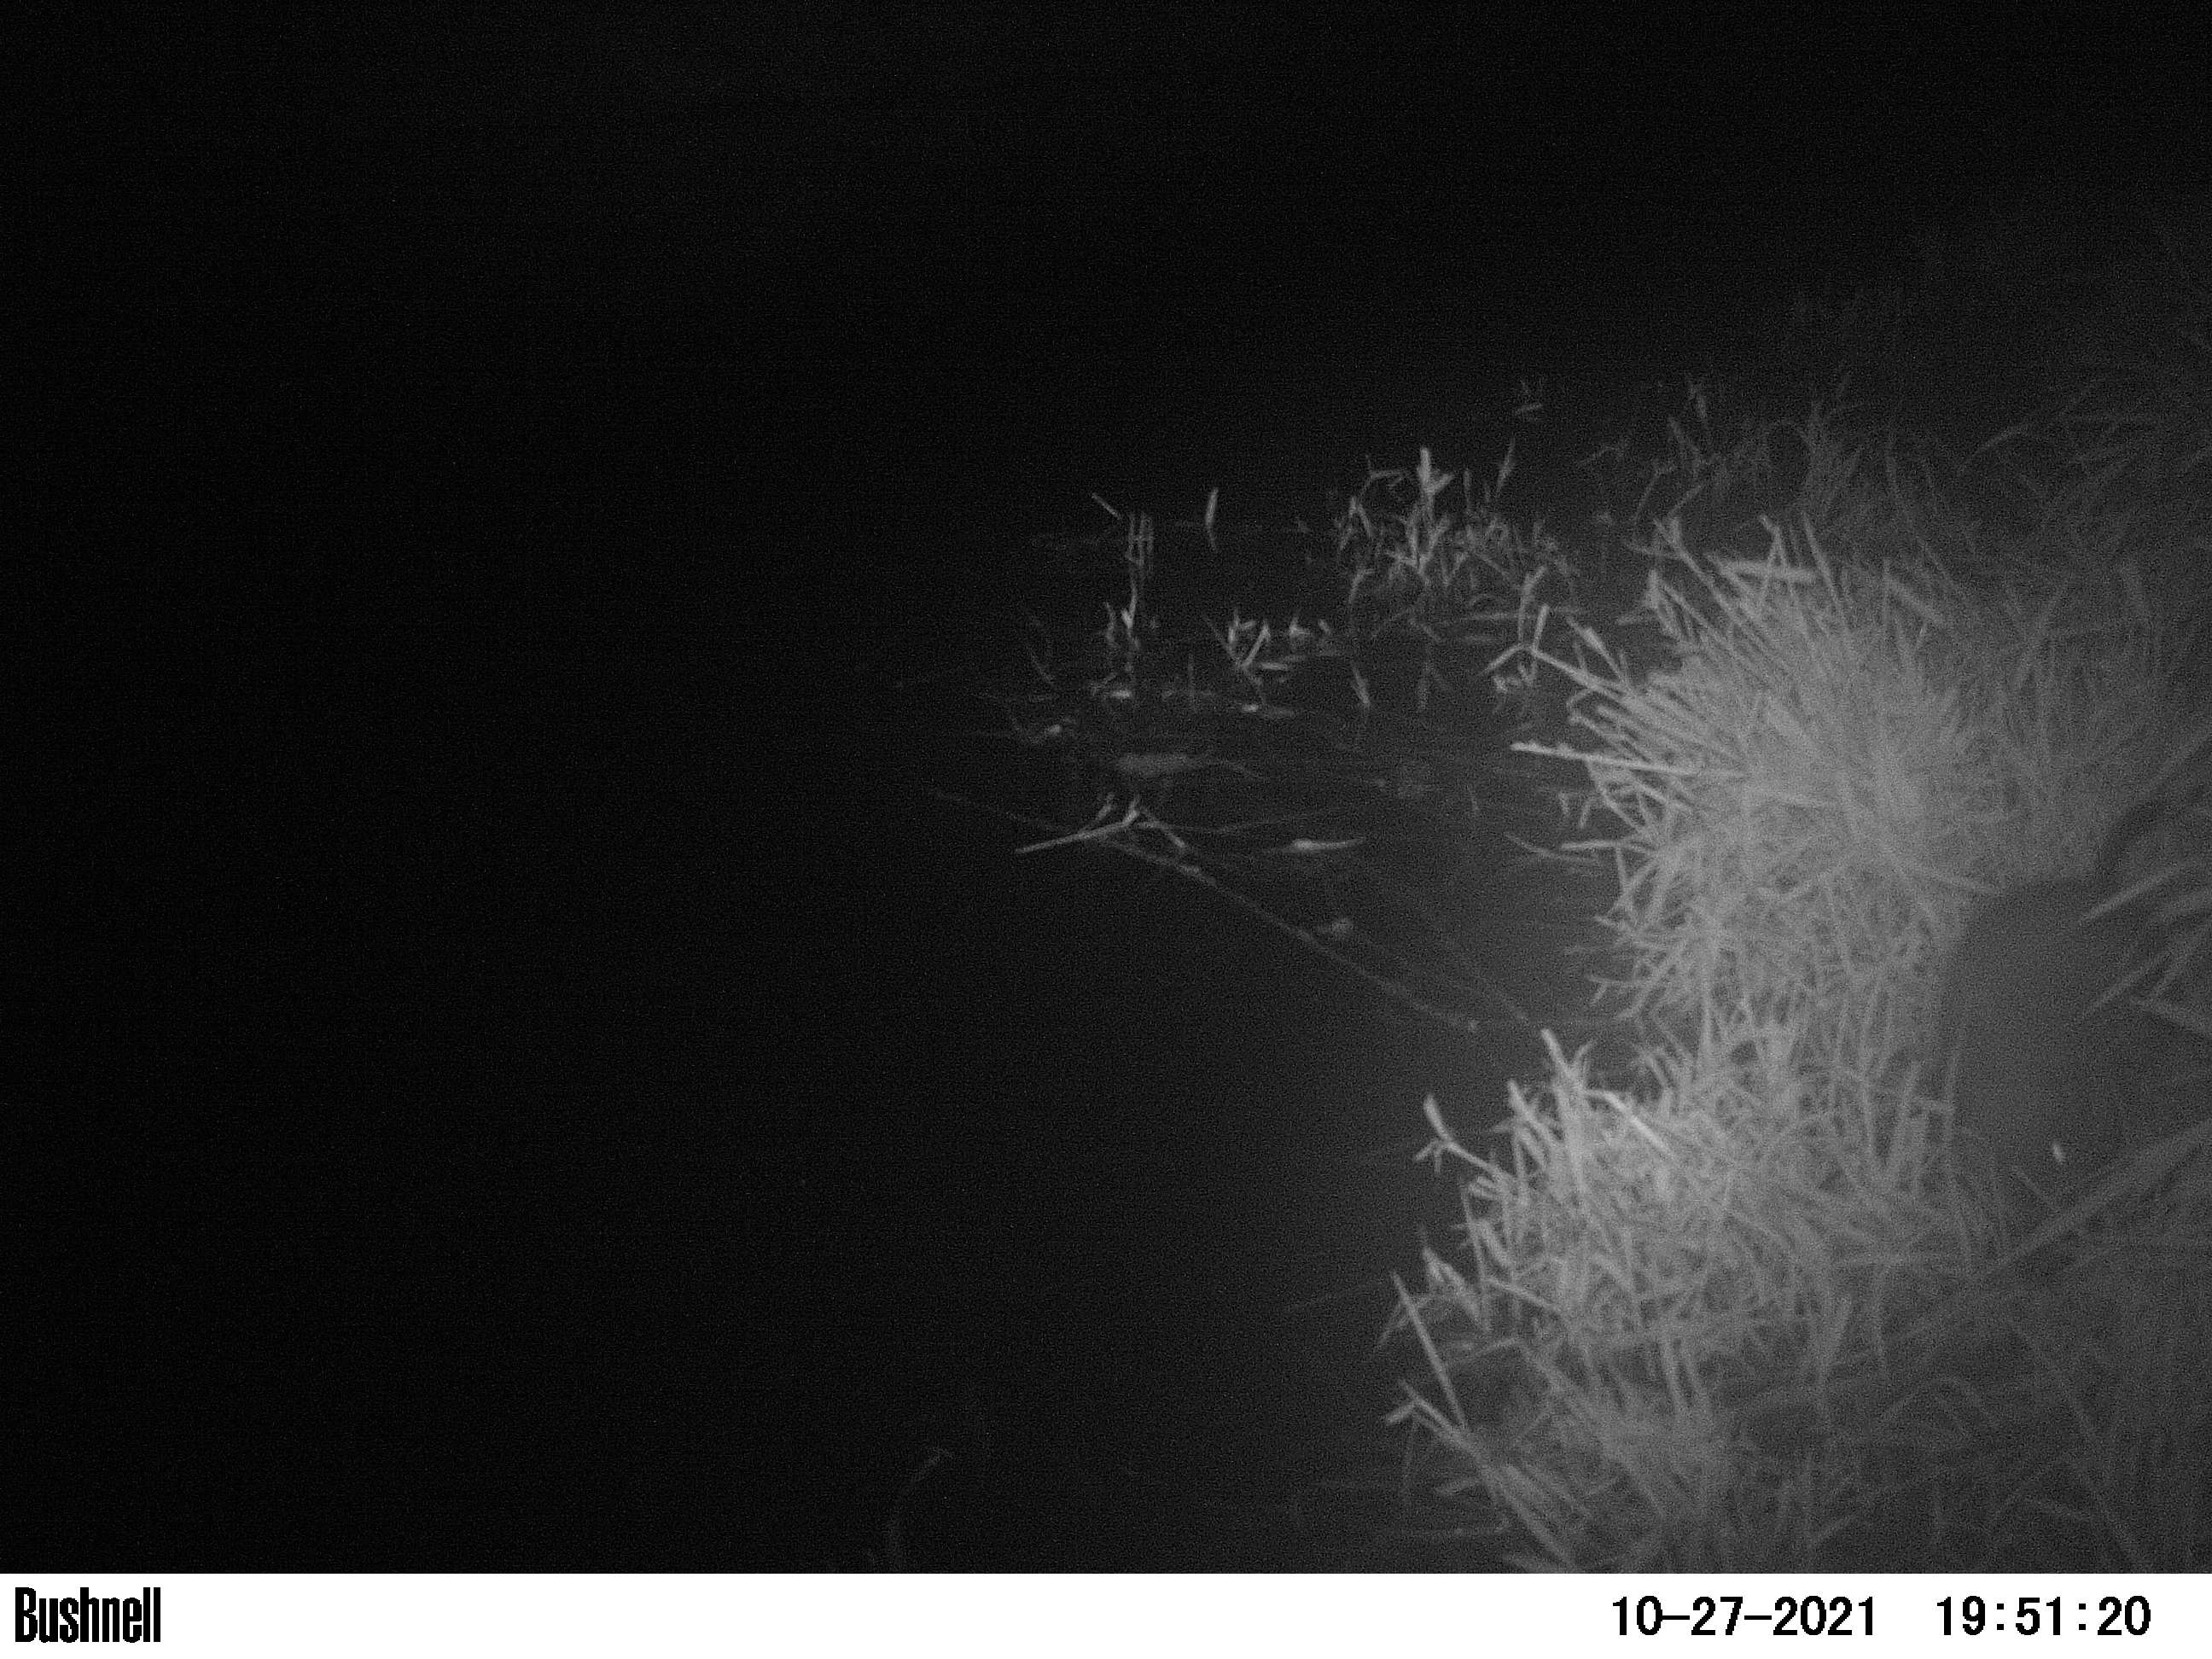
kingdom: Animalia
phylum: Chordata
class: Mammalia
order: Rodentia
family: Myocastoridae
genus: Myocastor
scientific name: Myocastor coypus
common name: Coypu
